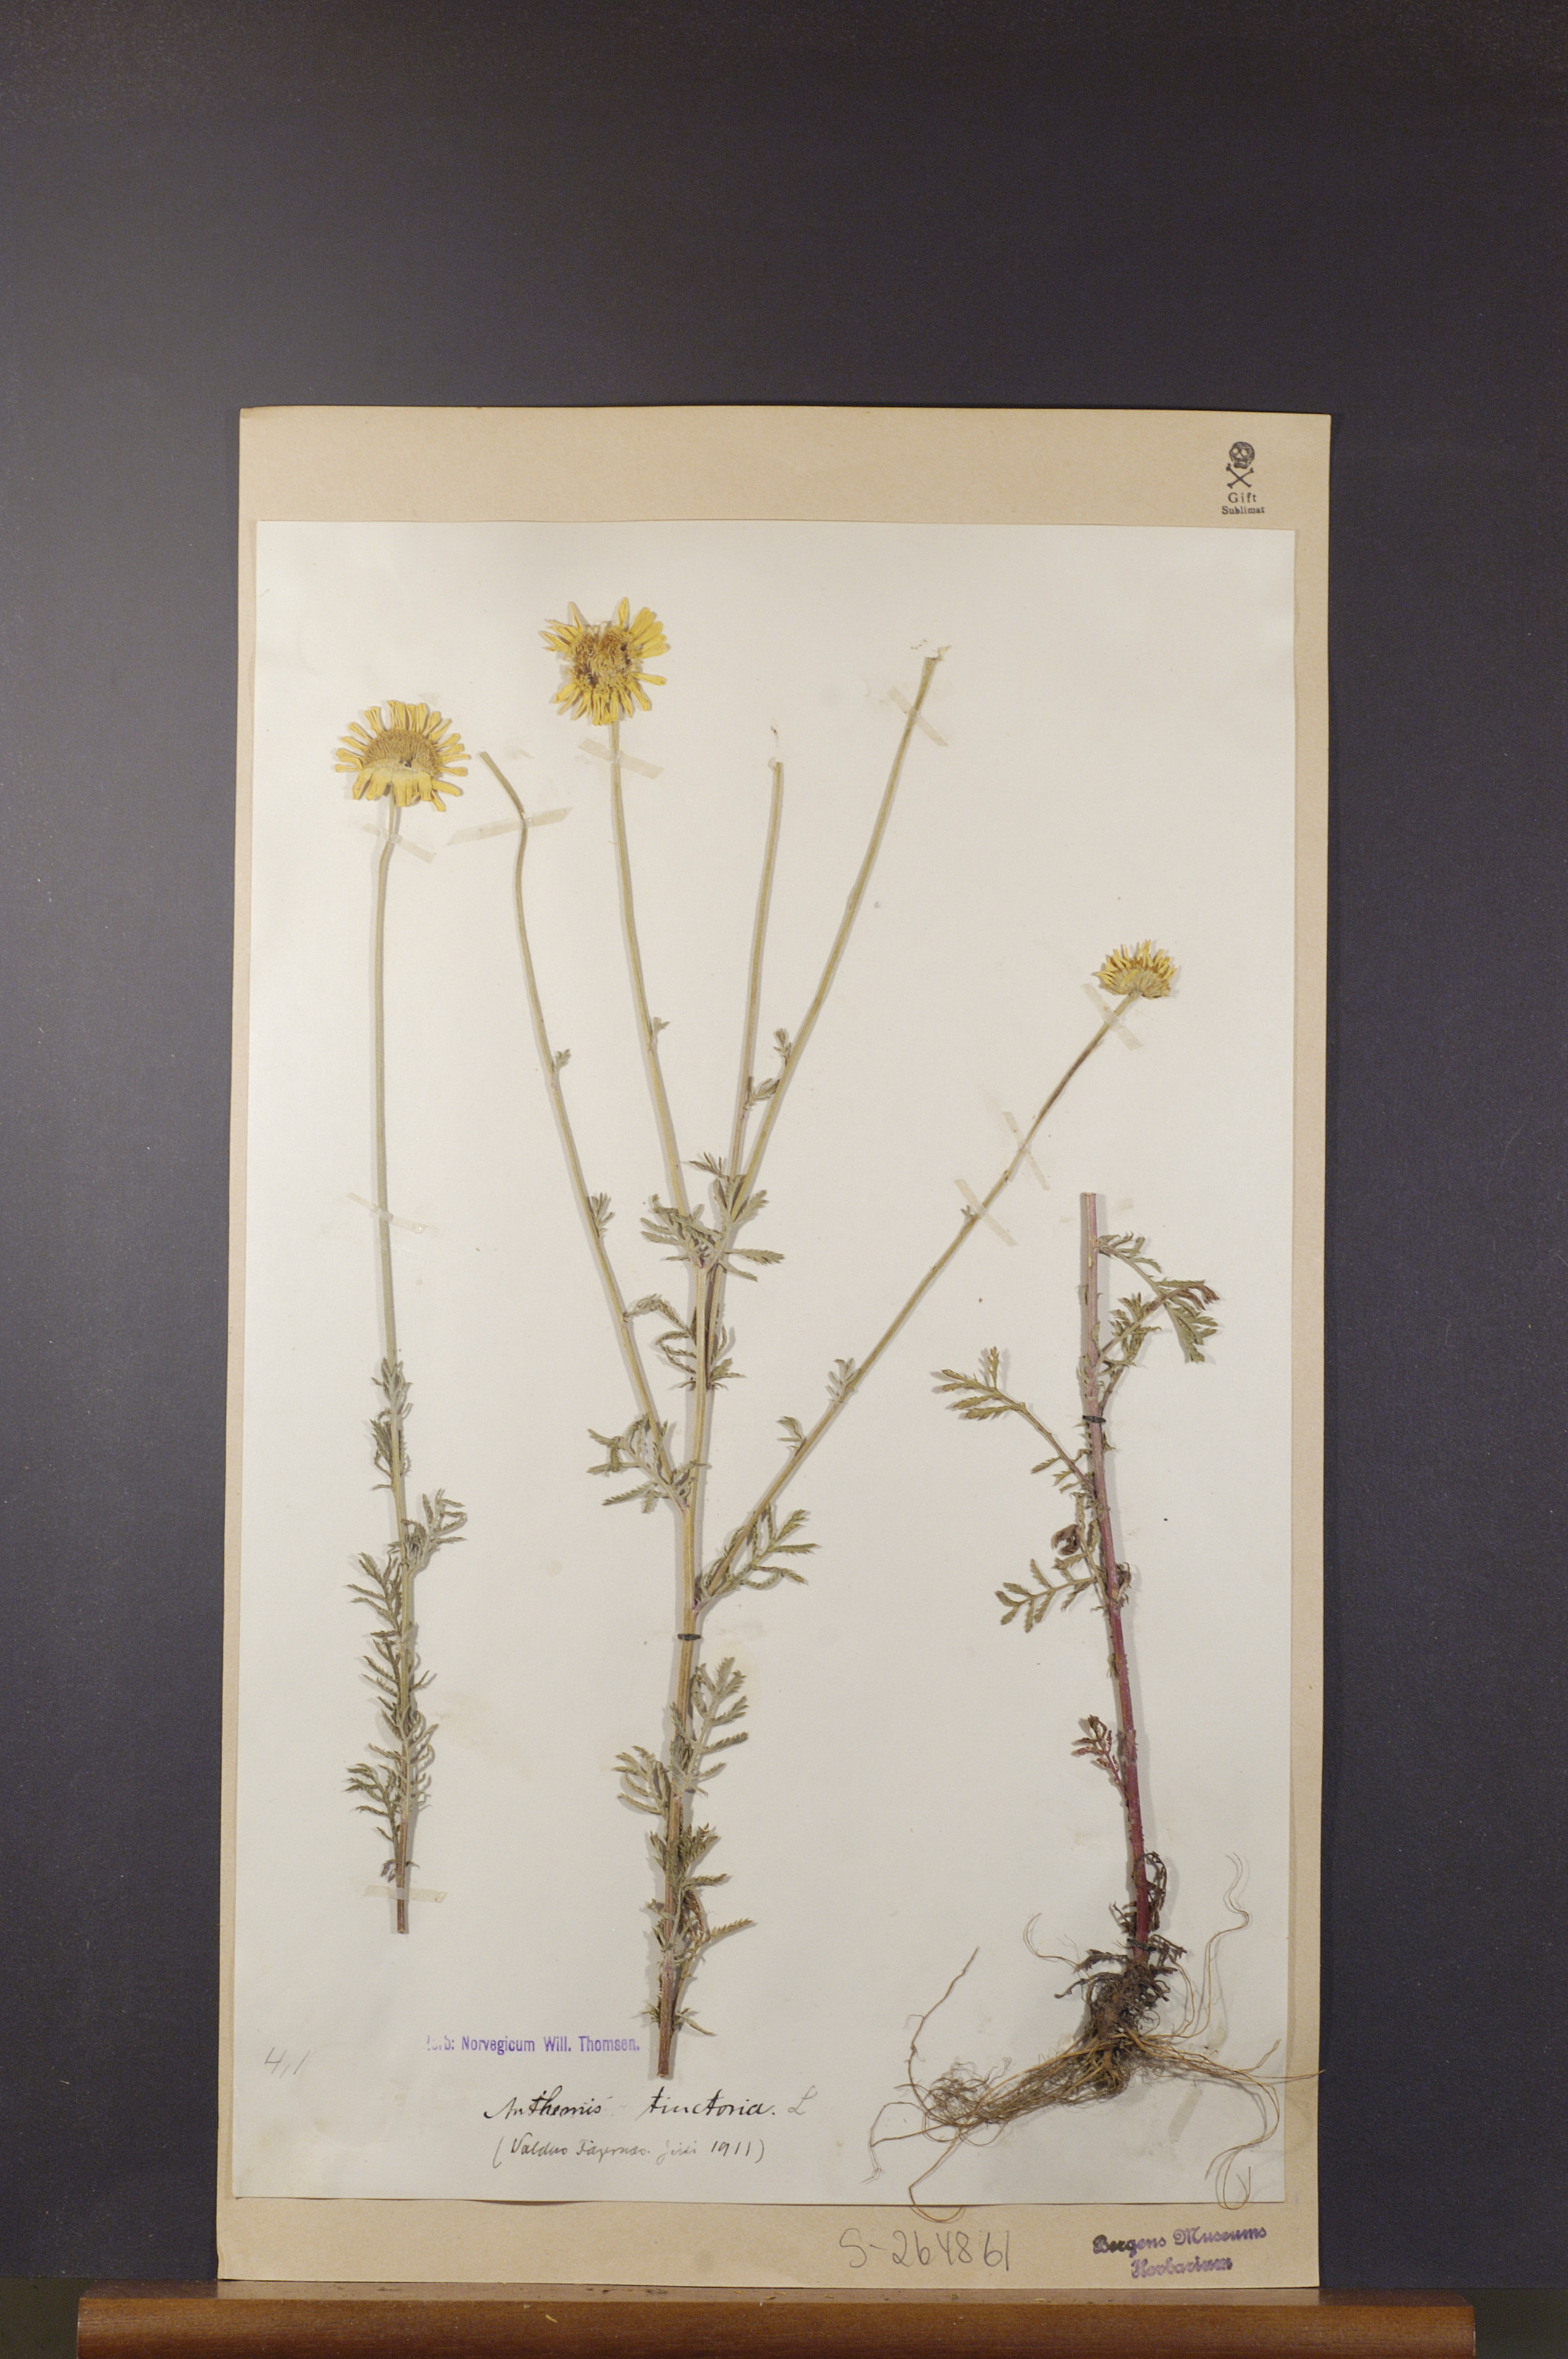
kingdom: Plantae
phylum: Tracheophyta
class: Magnoliopsida
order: Asterales
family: Asteraceae
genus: Cota
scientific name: Cota tinctoria
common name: Golden chamomile
